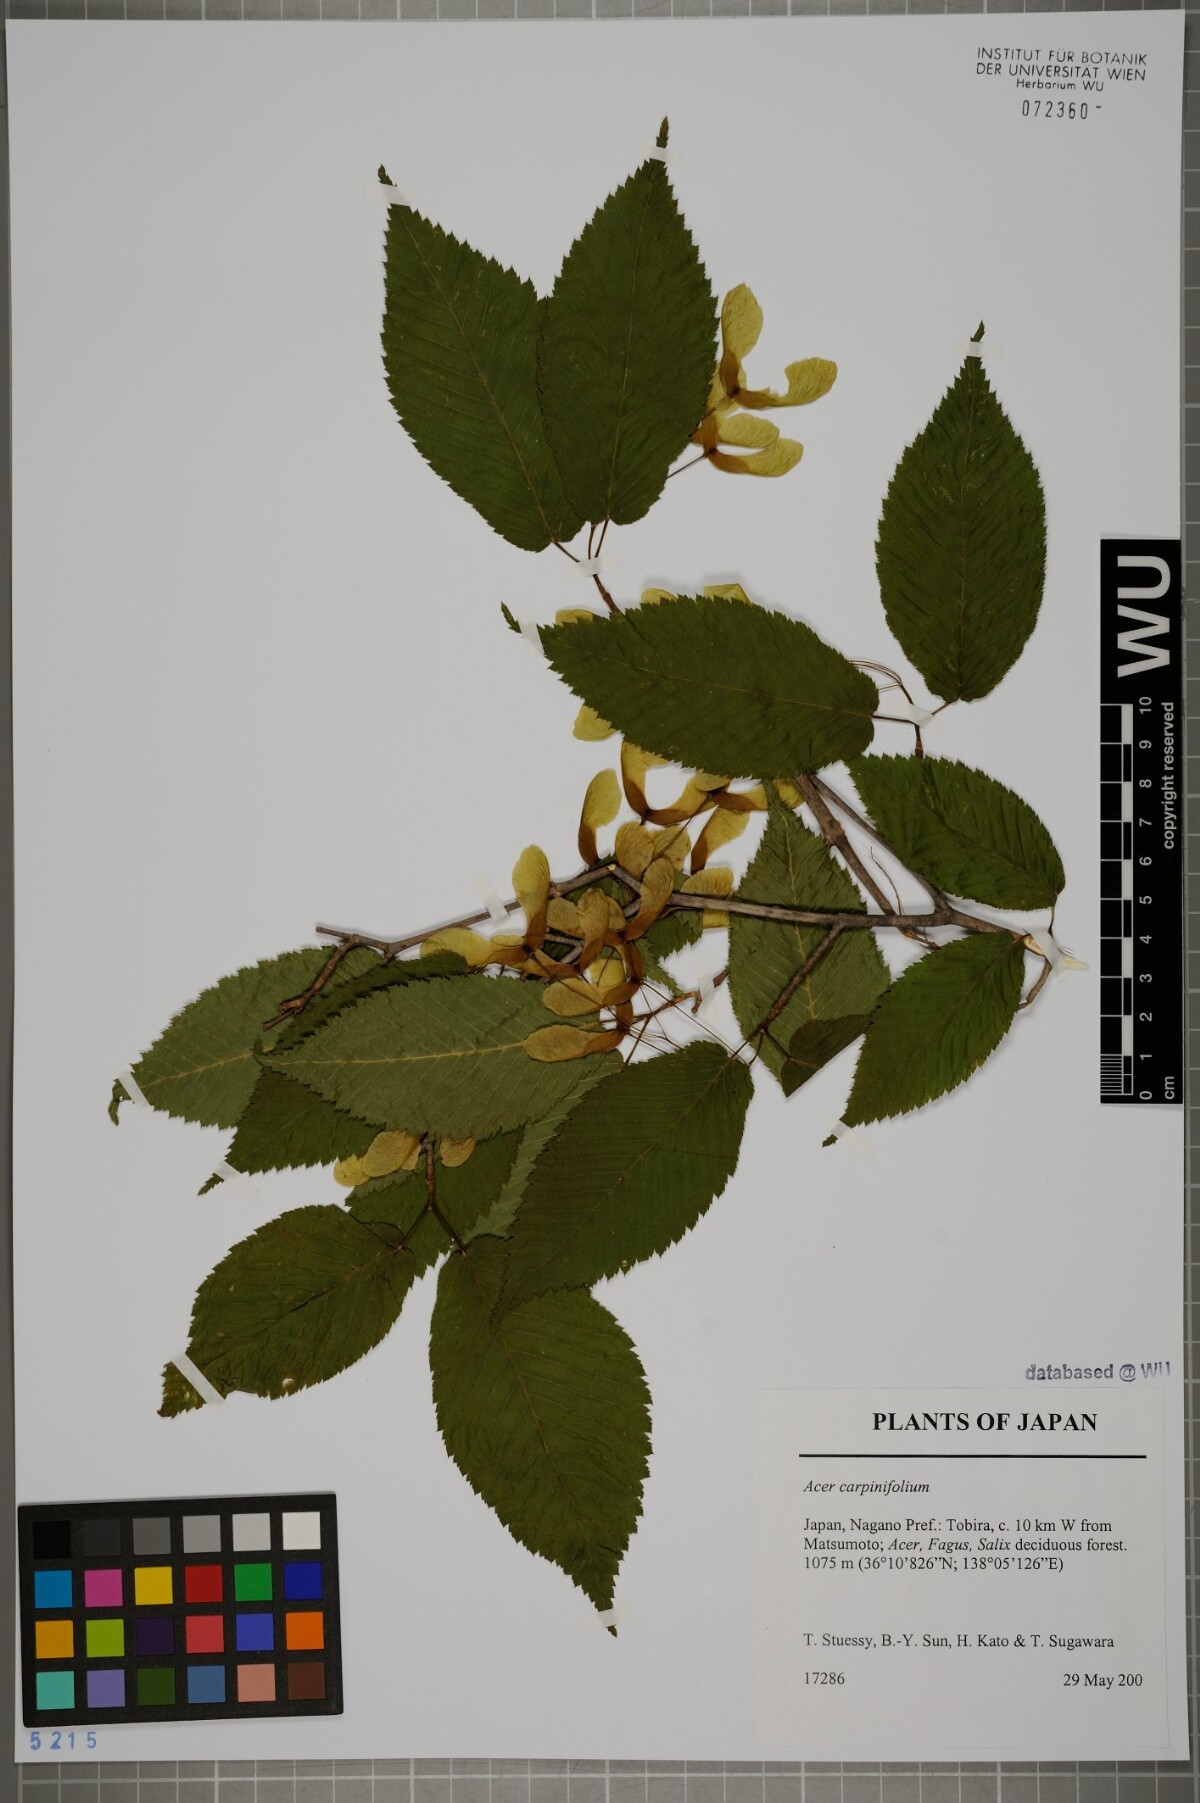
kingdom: Plantae
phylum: Tracheophyta
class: Magnoliopsida
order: Sapindales
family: Sapindaceae
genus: Acer
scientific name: Acer carpinifolium
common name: Hornbeam maple
